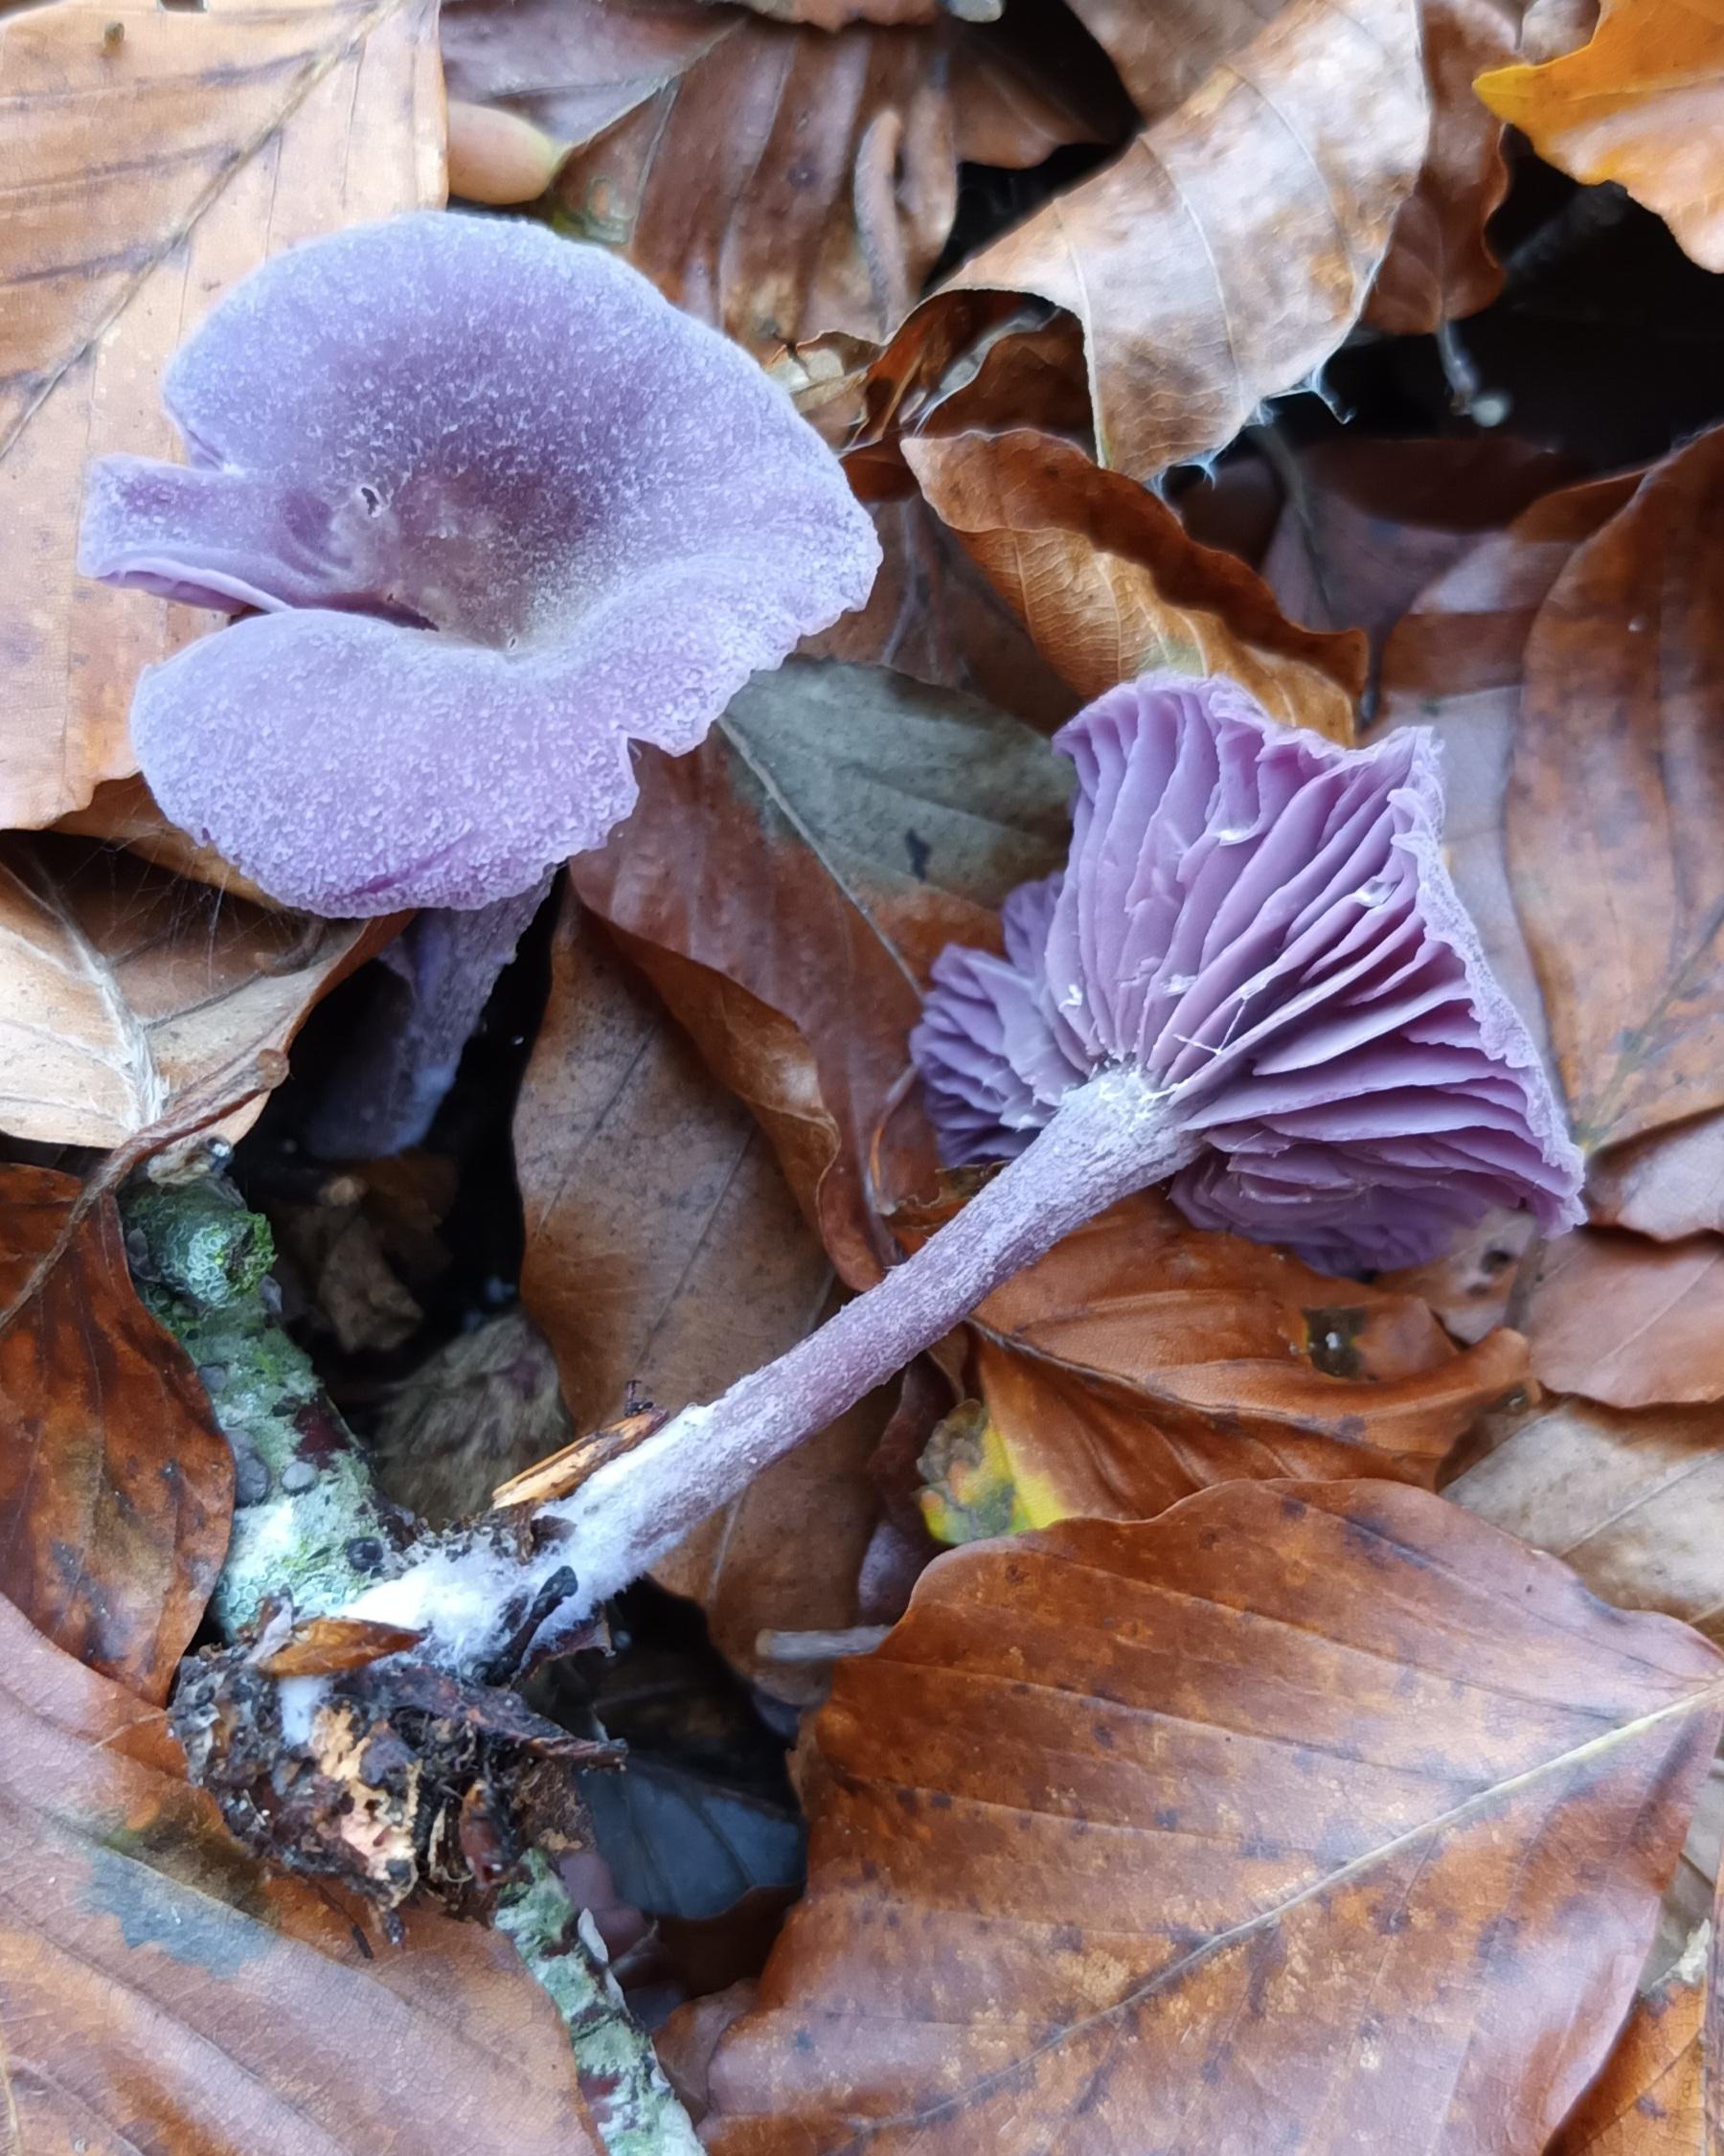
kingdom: Fungi
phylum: Basidiomycota
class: Agaricomycetes
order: Agaricales
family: Hydnangiaceae
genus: Laccaria
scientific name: Laccaria amethystina
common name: Violet ametysthat
